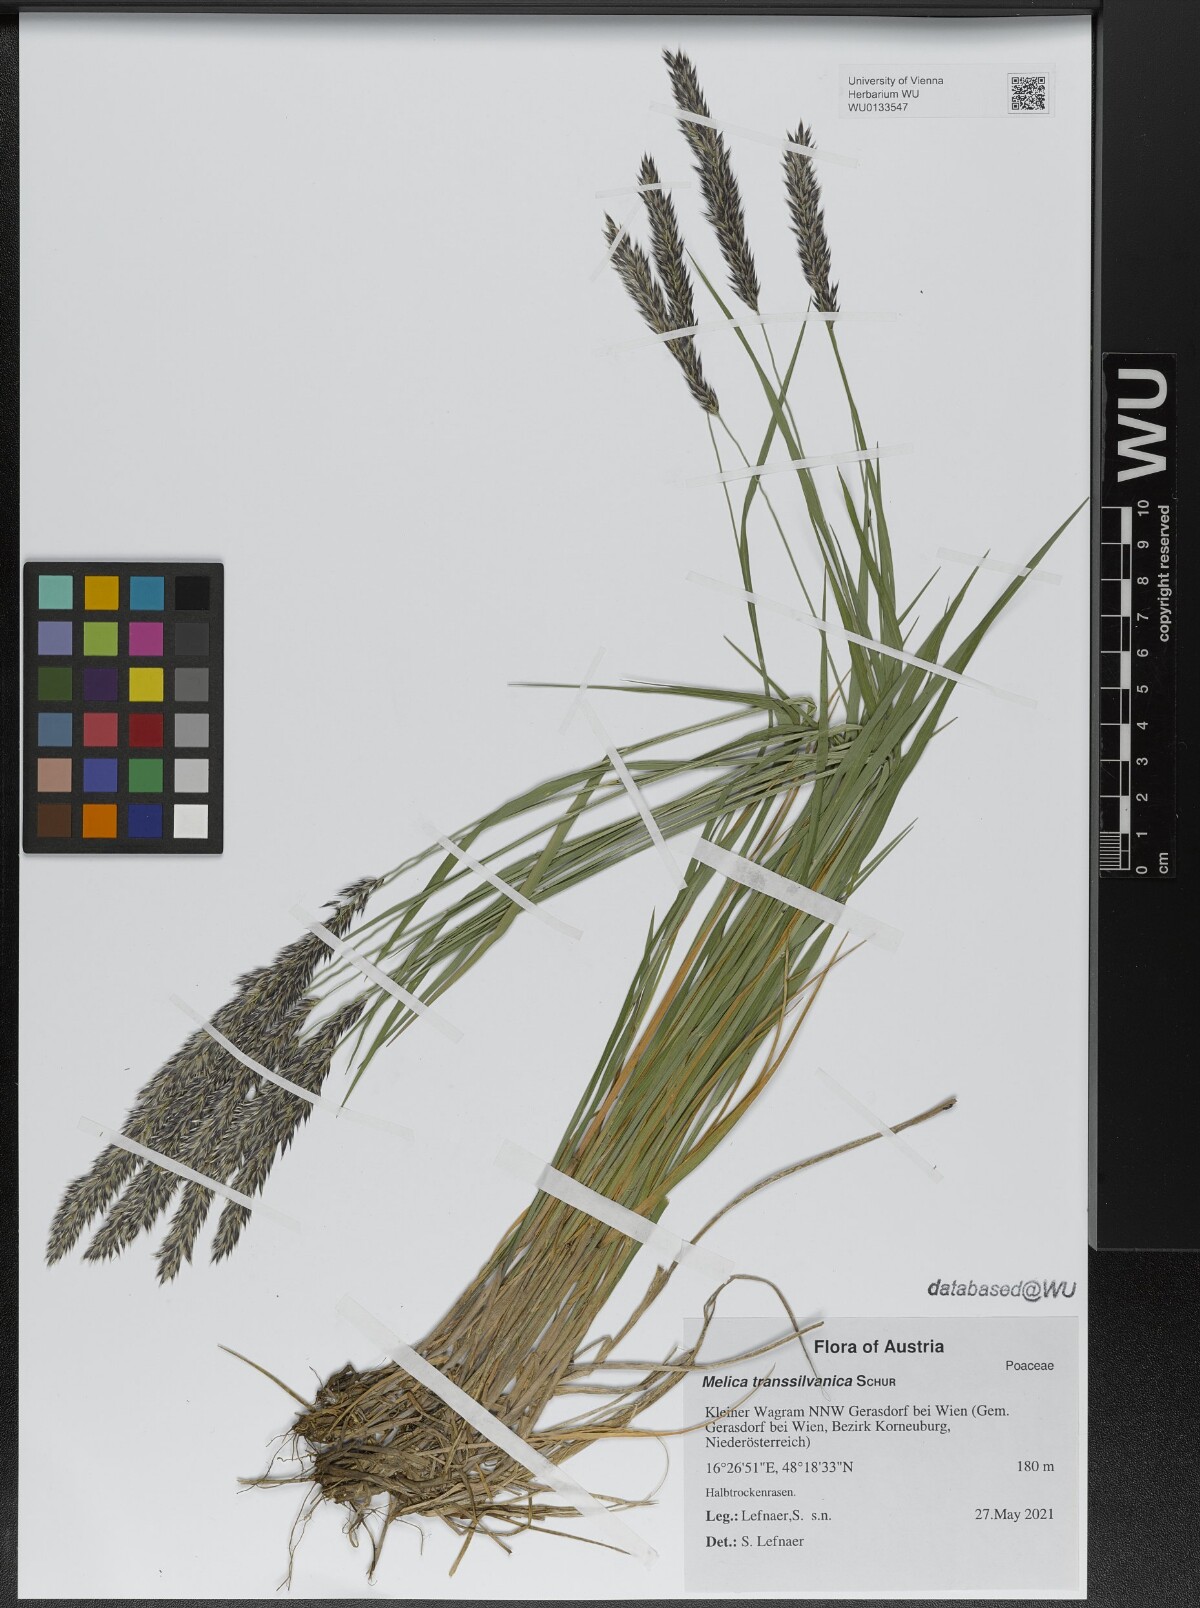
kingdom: Plantae
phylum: Tracheophyta
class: Liliopsida
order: Poales
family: Poaceae
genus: Melica
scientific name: Melica transsilvanica
